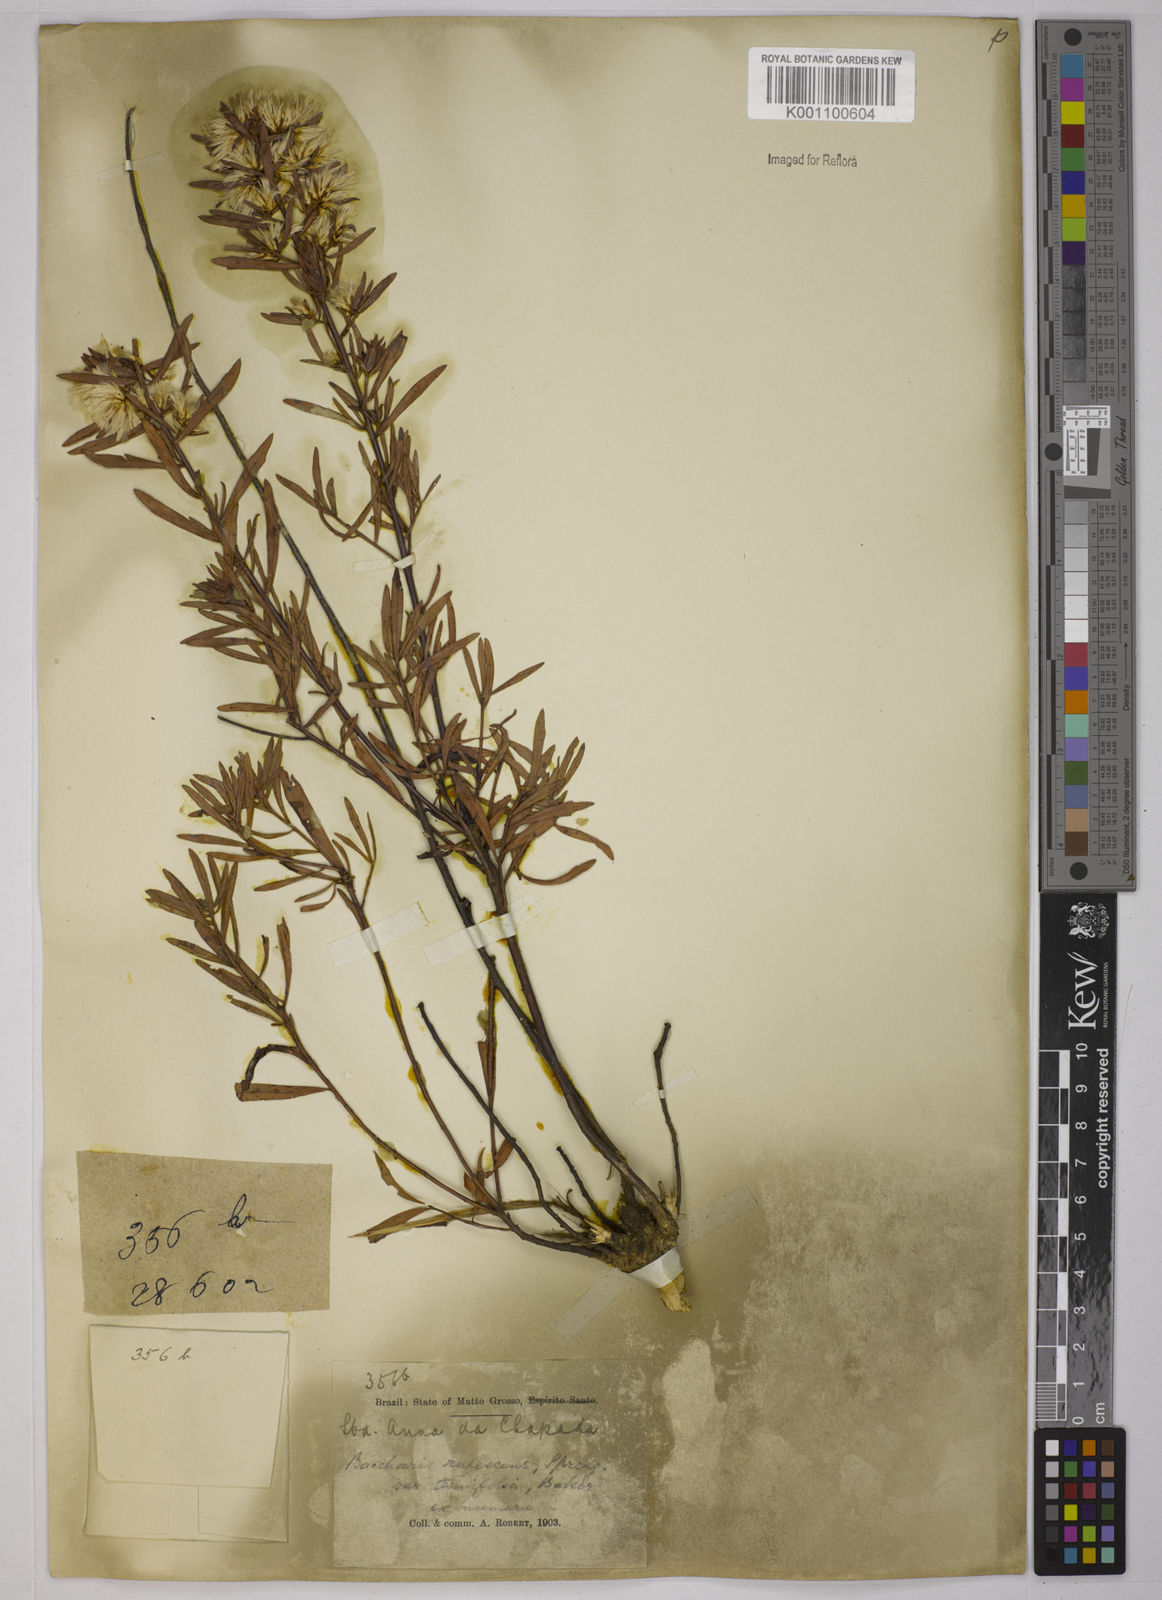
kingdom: Plantae
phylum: Tracheophyta
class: Magnoliopsida
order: Asterales
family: Asteraceae
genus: Baccharis
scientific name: Baccharis rufescens
